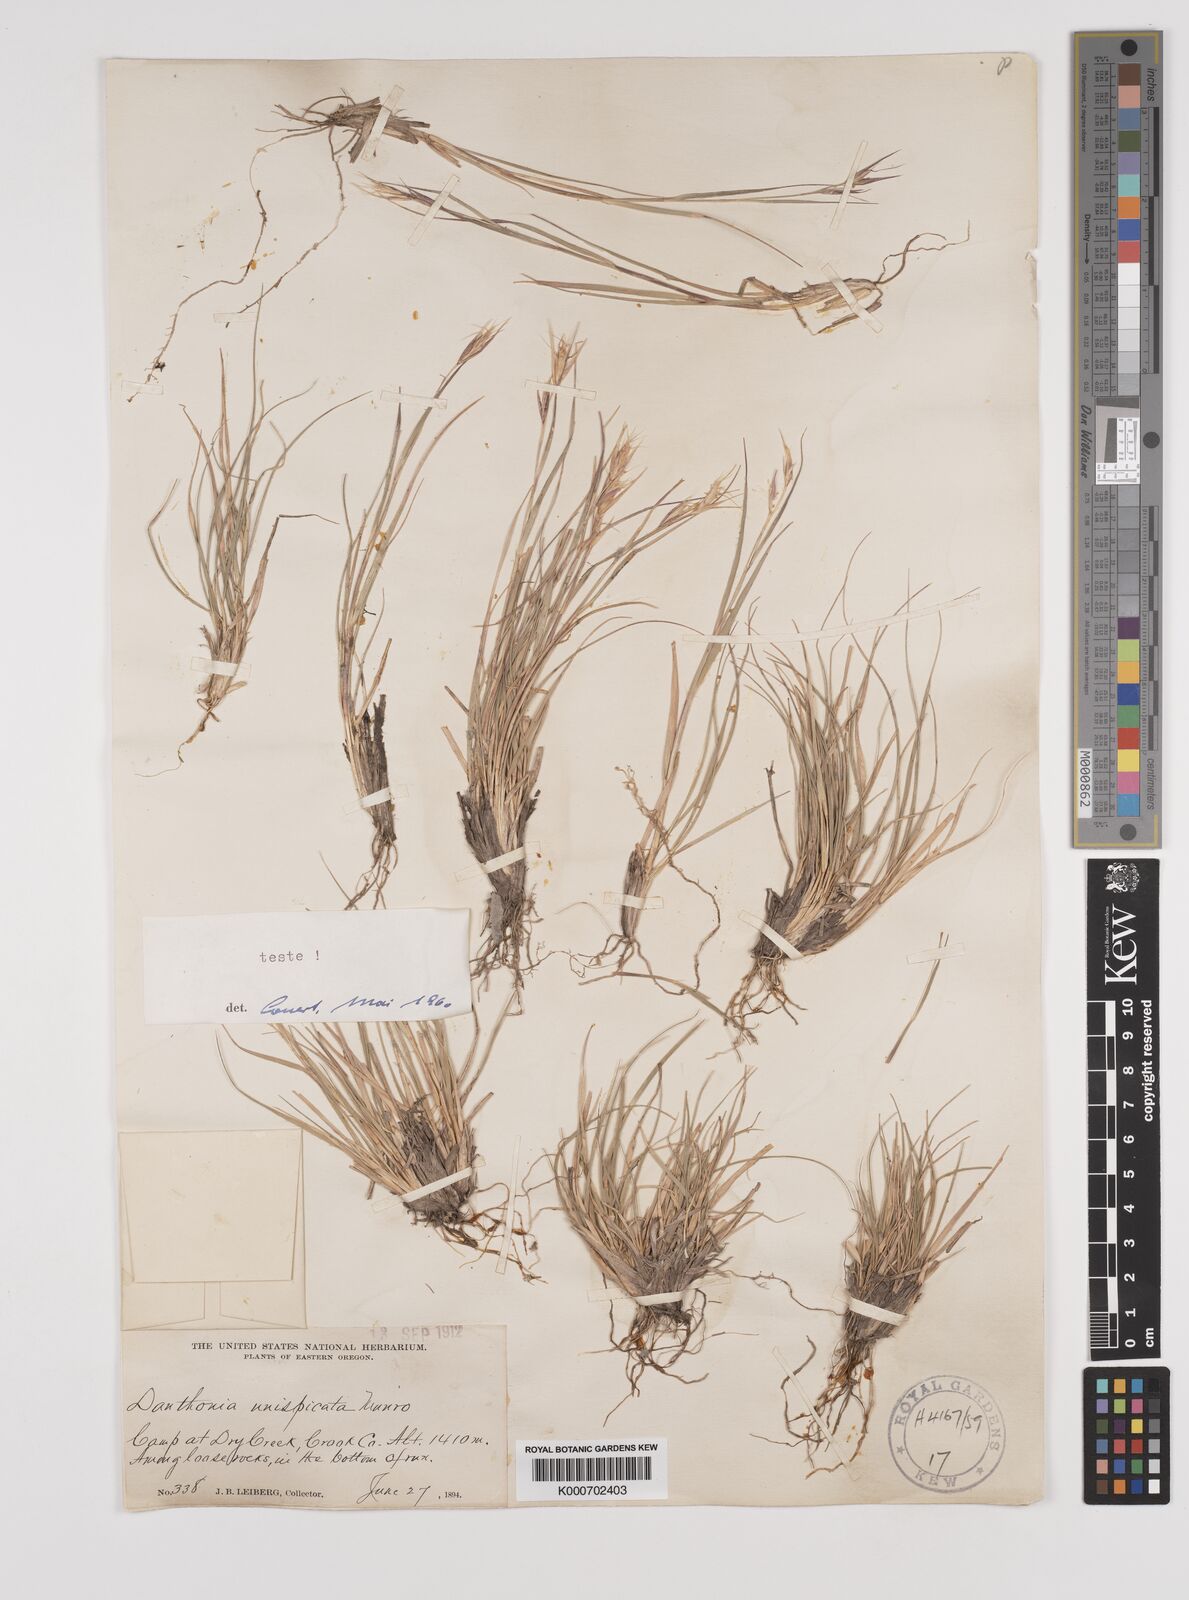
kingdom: Plantae
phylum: Tracheophyta
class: Liliopsida
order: Poales
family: Poaceae
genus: Danthonia
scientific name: Danthonia unispicata
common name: Few-flowered oatgrass
